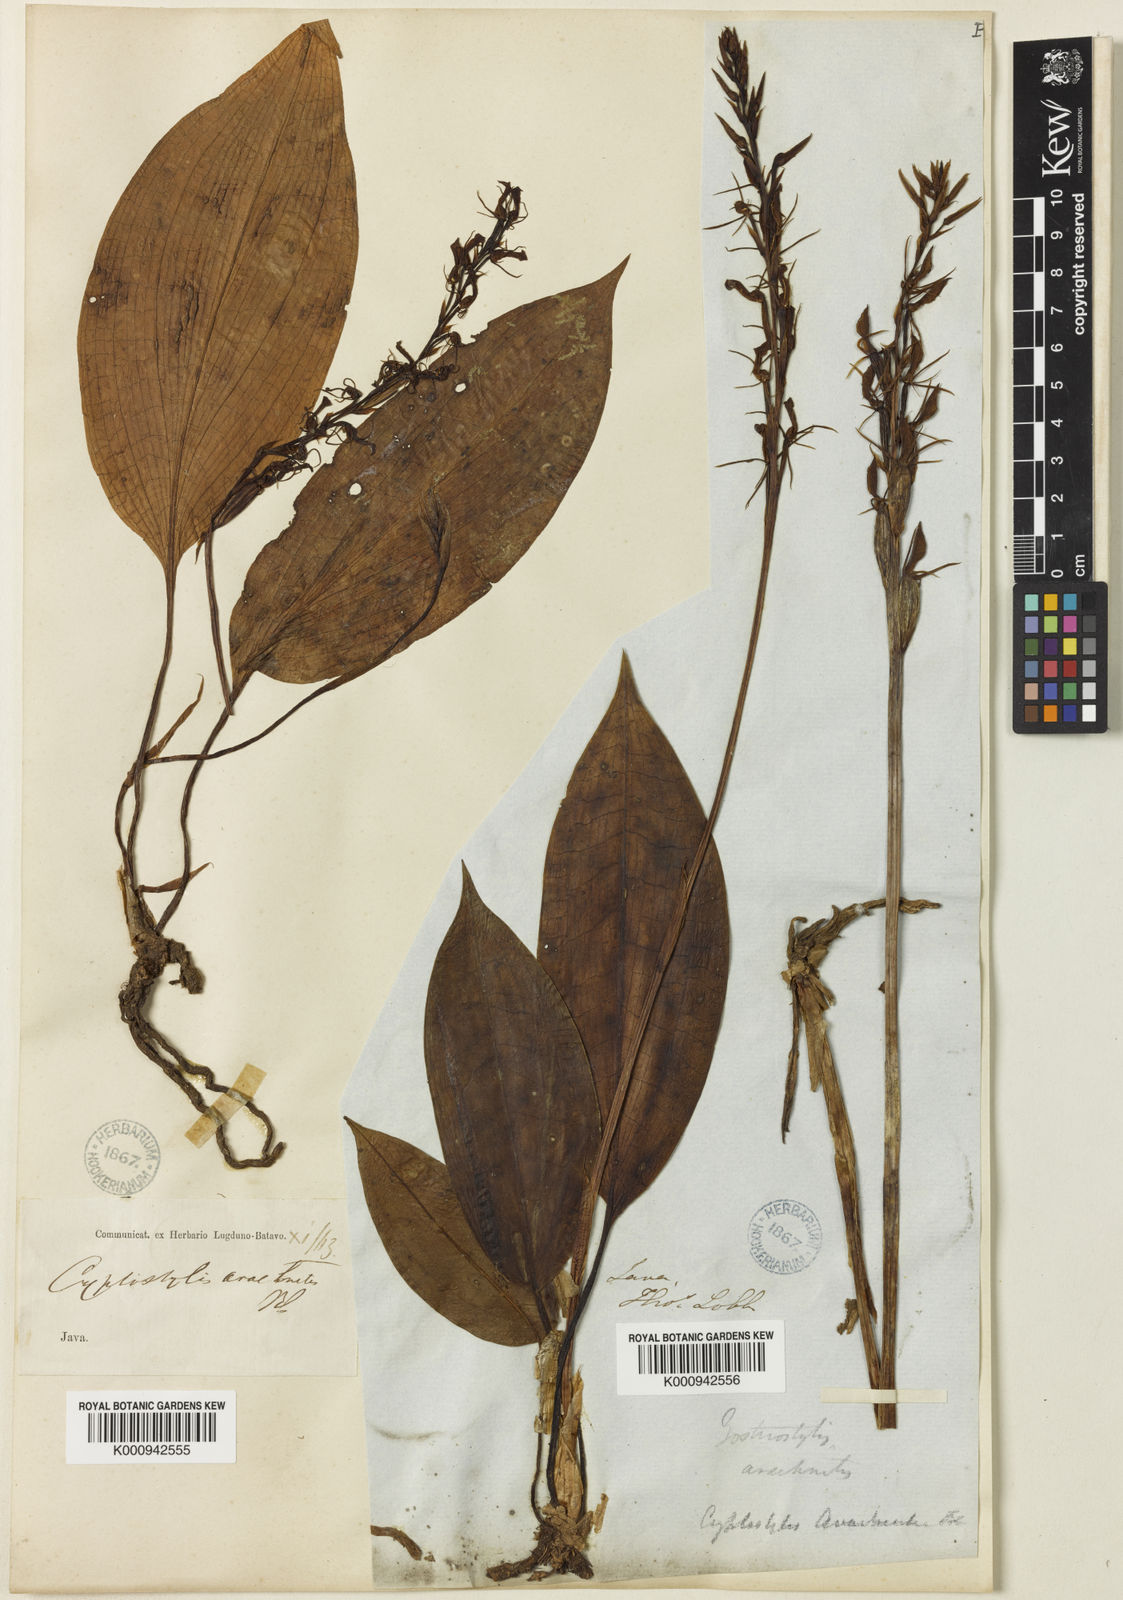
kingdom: Plantae
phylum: Tracheophyta
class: Liliopsida
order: Asparagales
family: Orchidaceae
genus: Cryptostylis
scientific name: Cryptostylis arachnites
